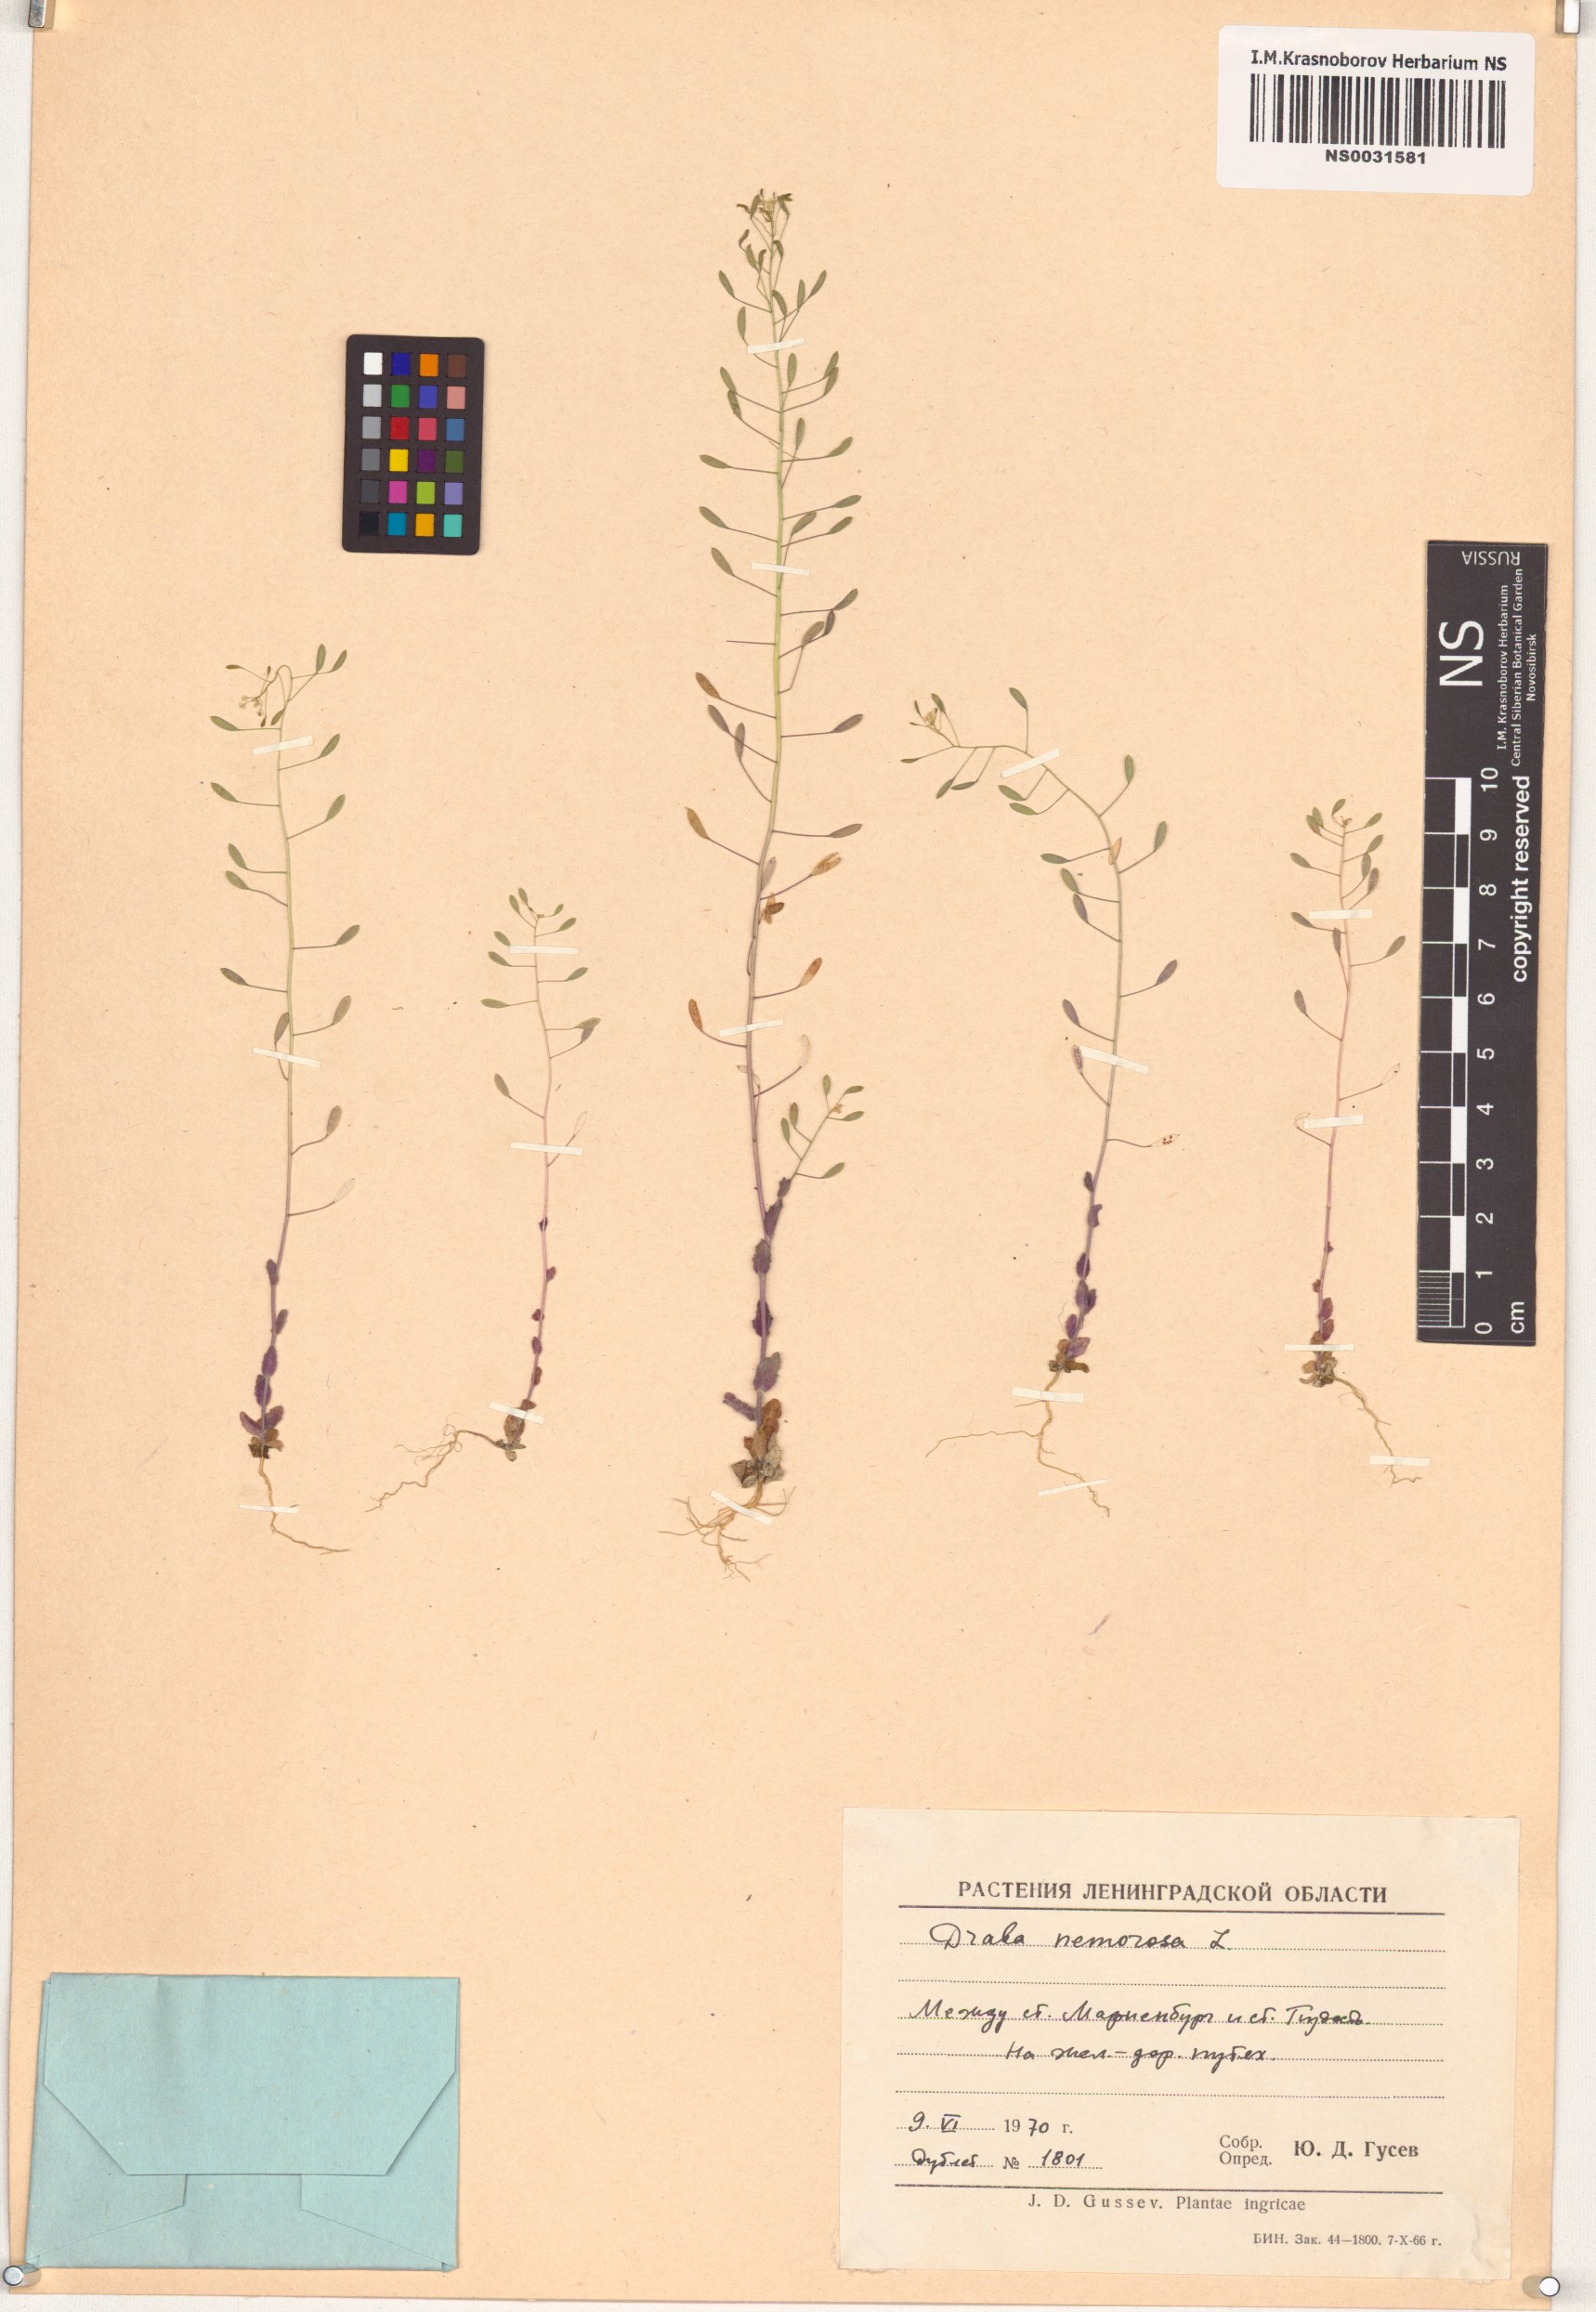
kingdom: Plantae
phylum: Tracheophyta
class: Magnoliopsida
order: Brassicales
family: Brassicaceae
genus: Draba
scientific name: Draba nemorosa
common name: Wood whitlow-grass
